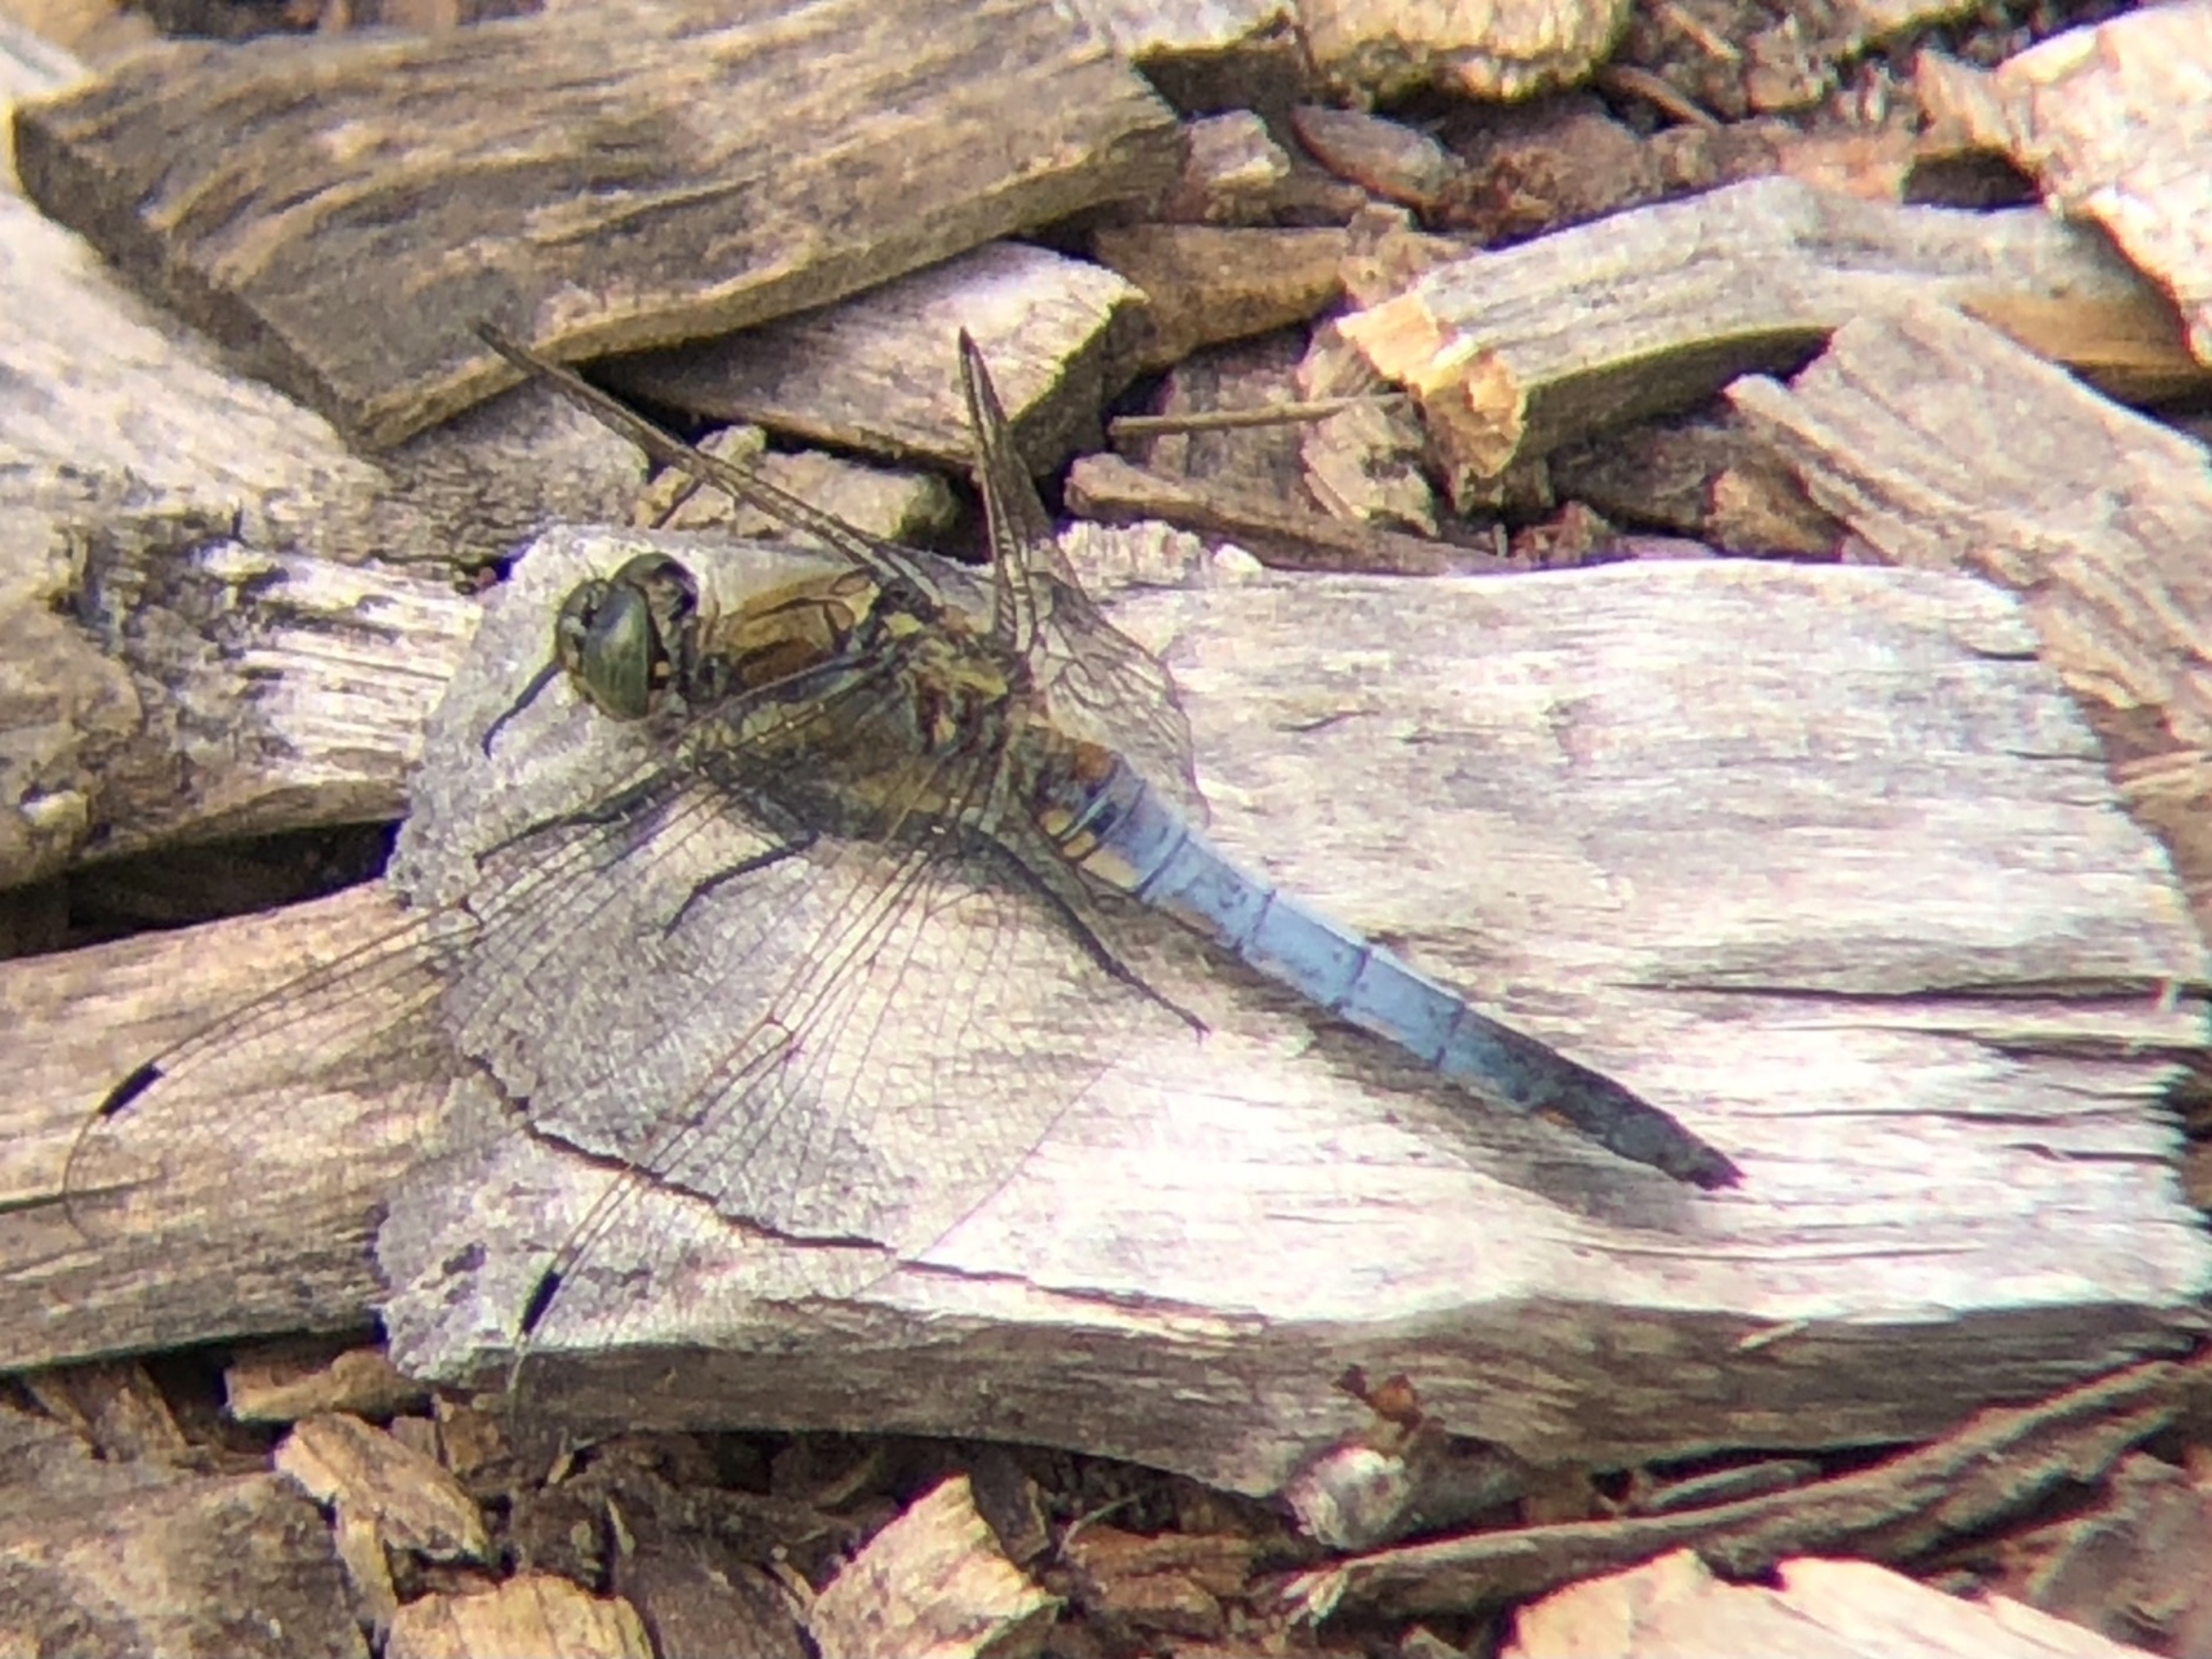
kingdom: Animalia
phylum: Arthropoda
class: Insecta
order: Odonata
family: Libellulidae
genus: Orthetrum
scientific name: Orthetrum cancellatum
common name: Stor blåpil
